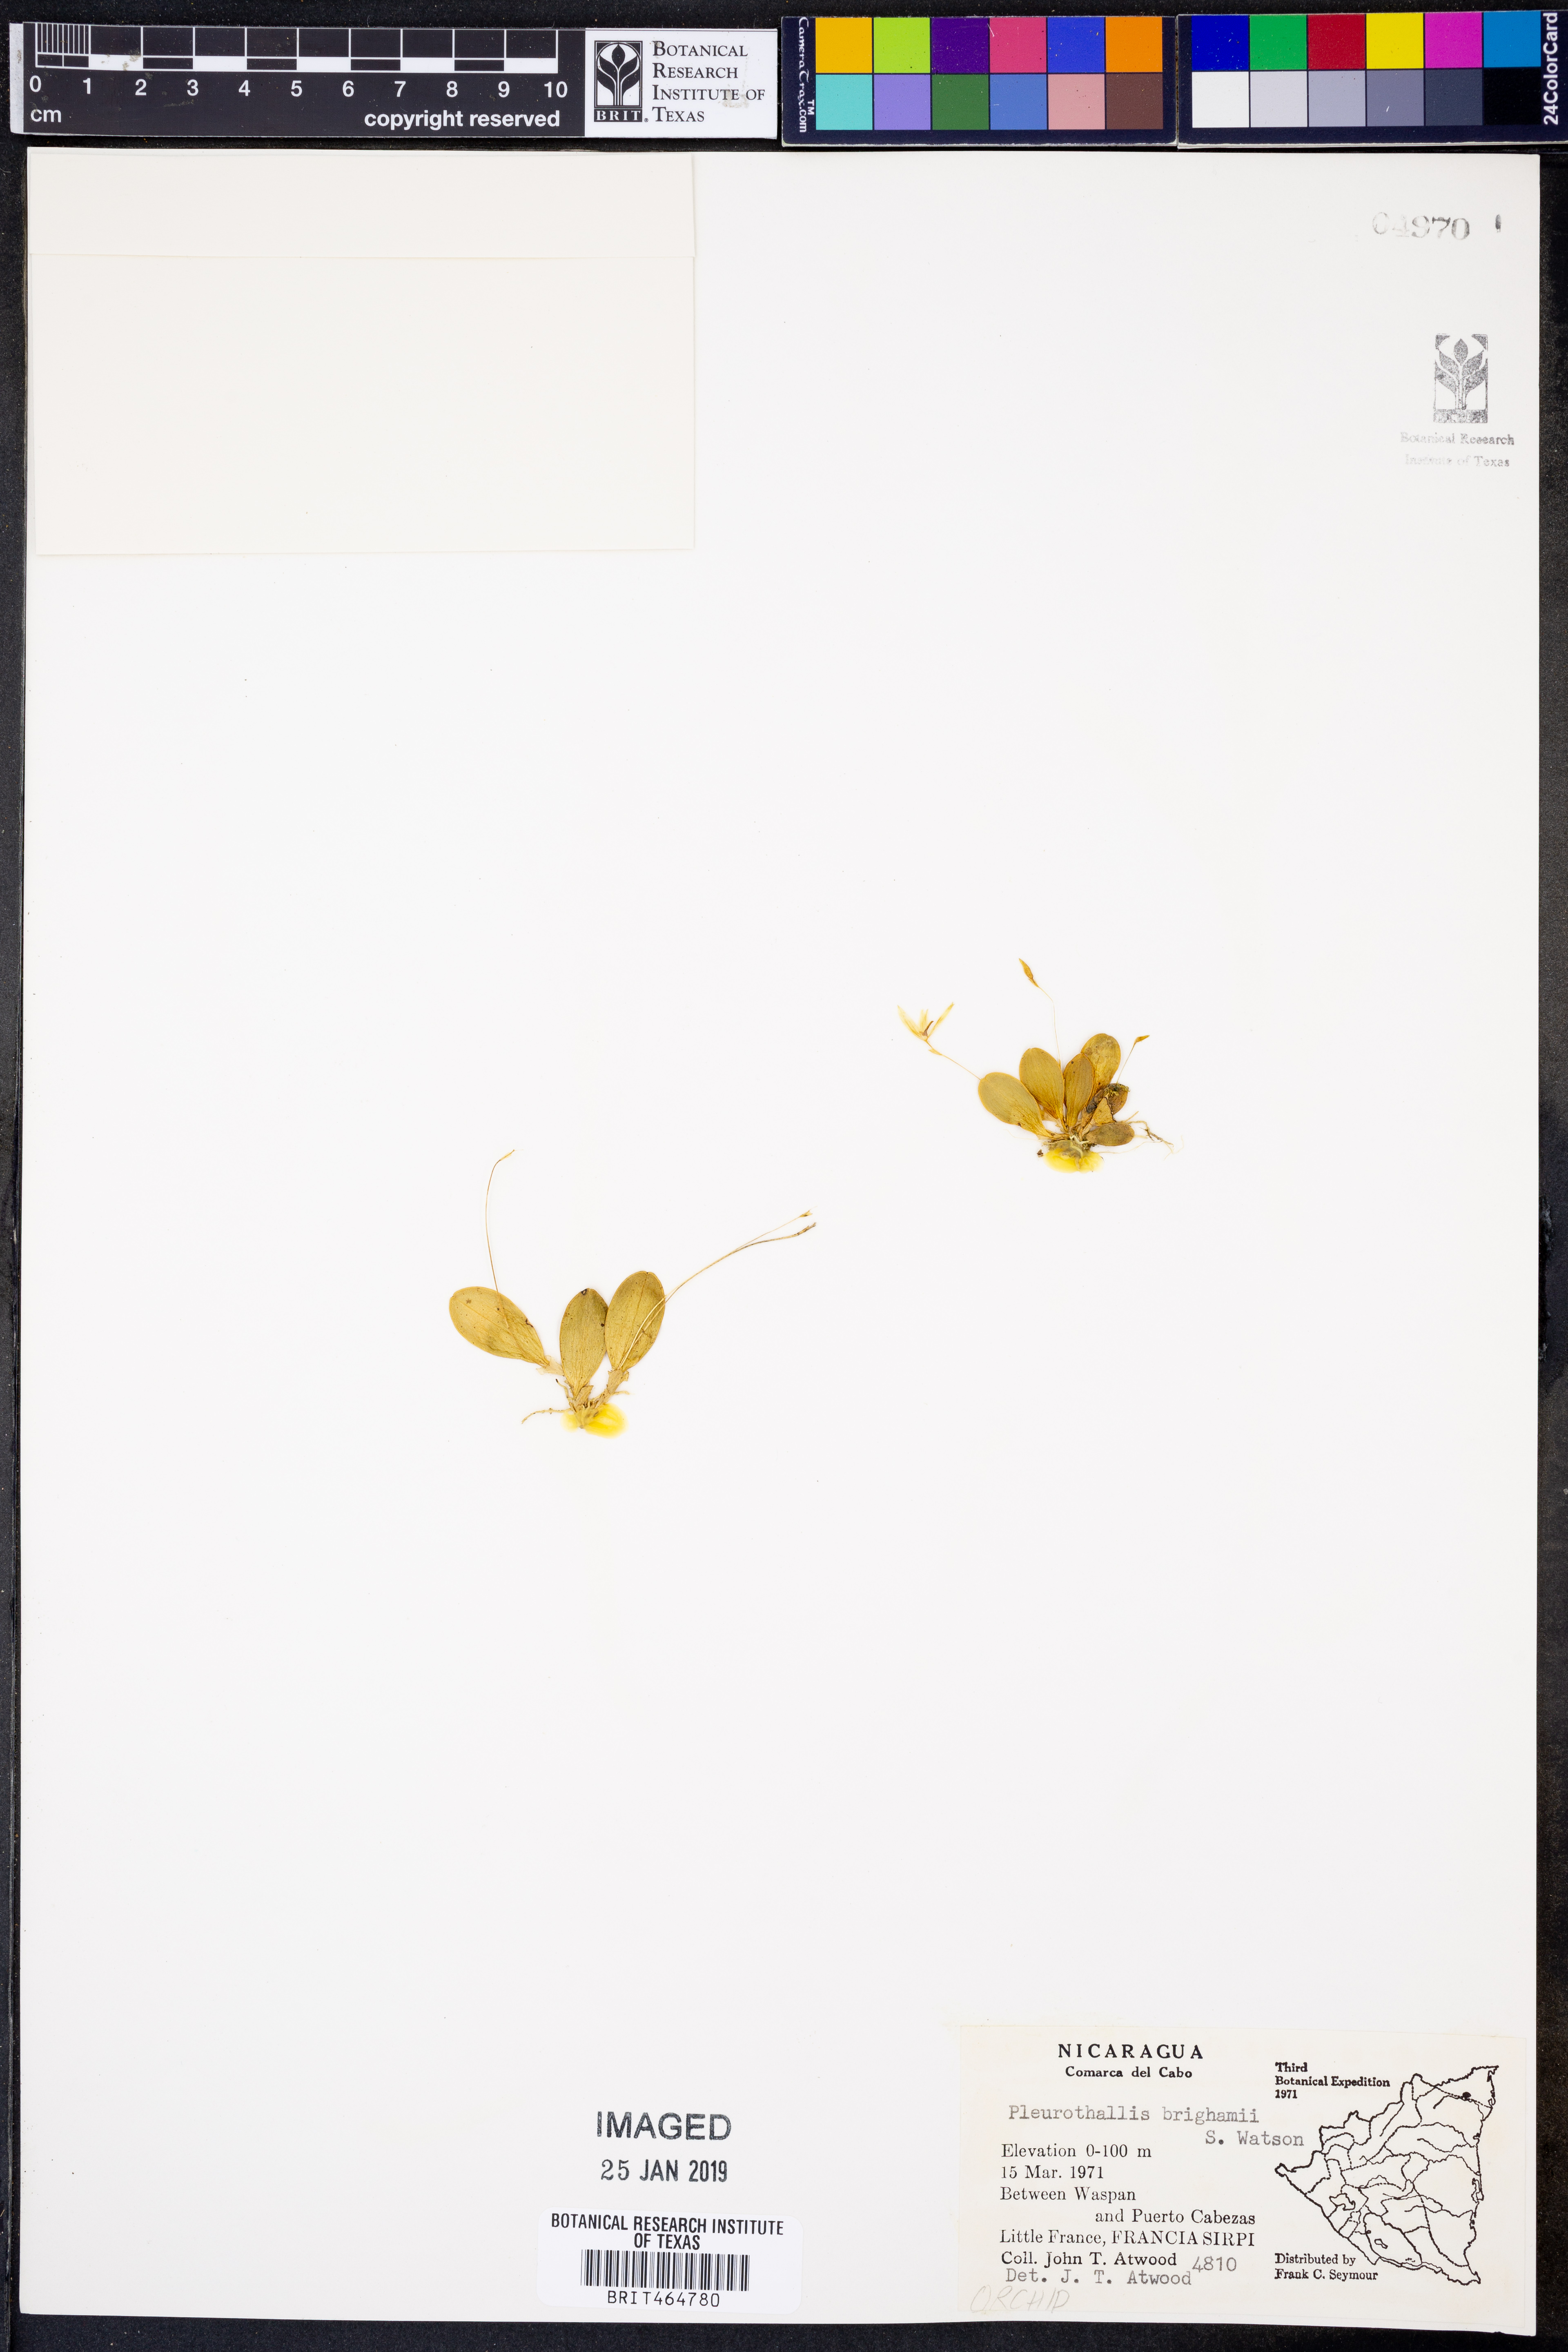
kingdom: Plantae
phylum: Tracheophyta
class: Liliopsida
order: Asparagales
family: Orchidaceae
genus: Specklinia
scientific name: Specklinia brighamii
